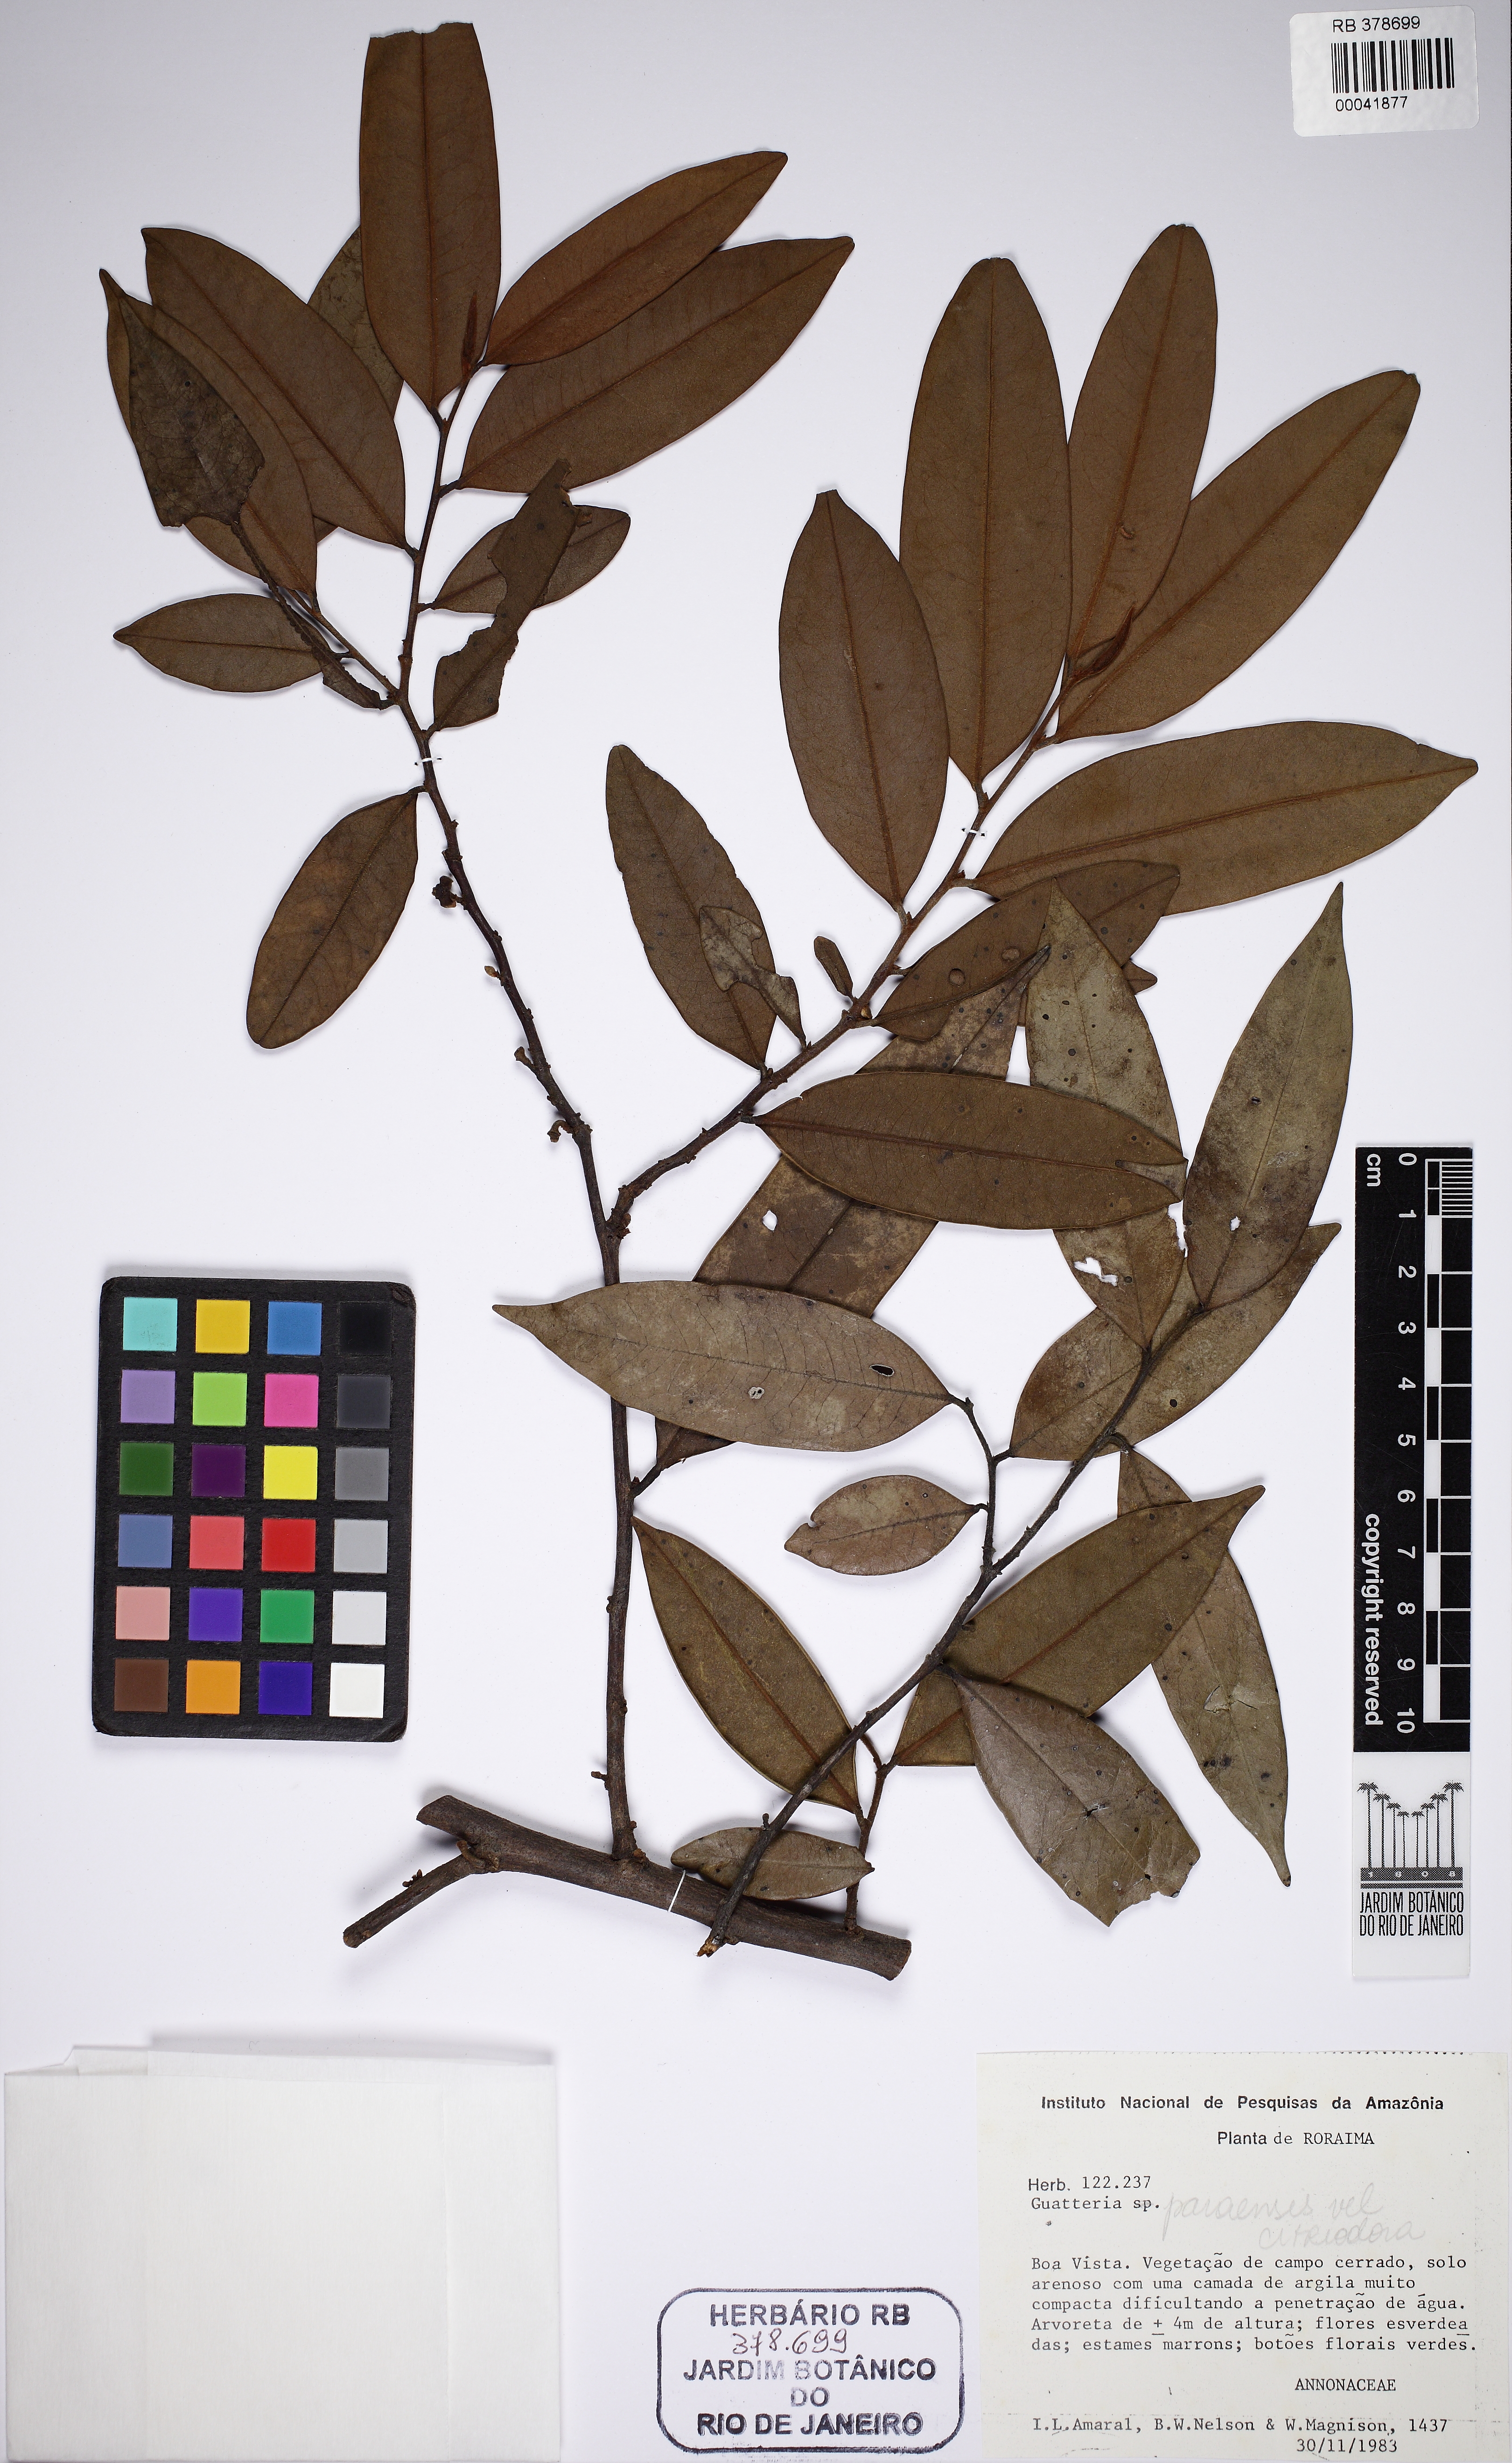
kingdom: Plantae
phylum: Tracheophyta
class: Magnoliopsida
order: Magnoliales
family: Annonaceae
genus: Guatteria
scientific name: Guatteria citriodora
